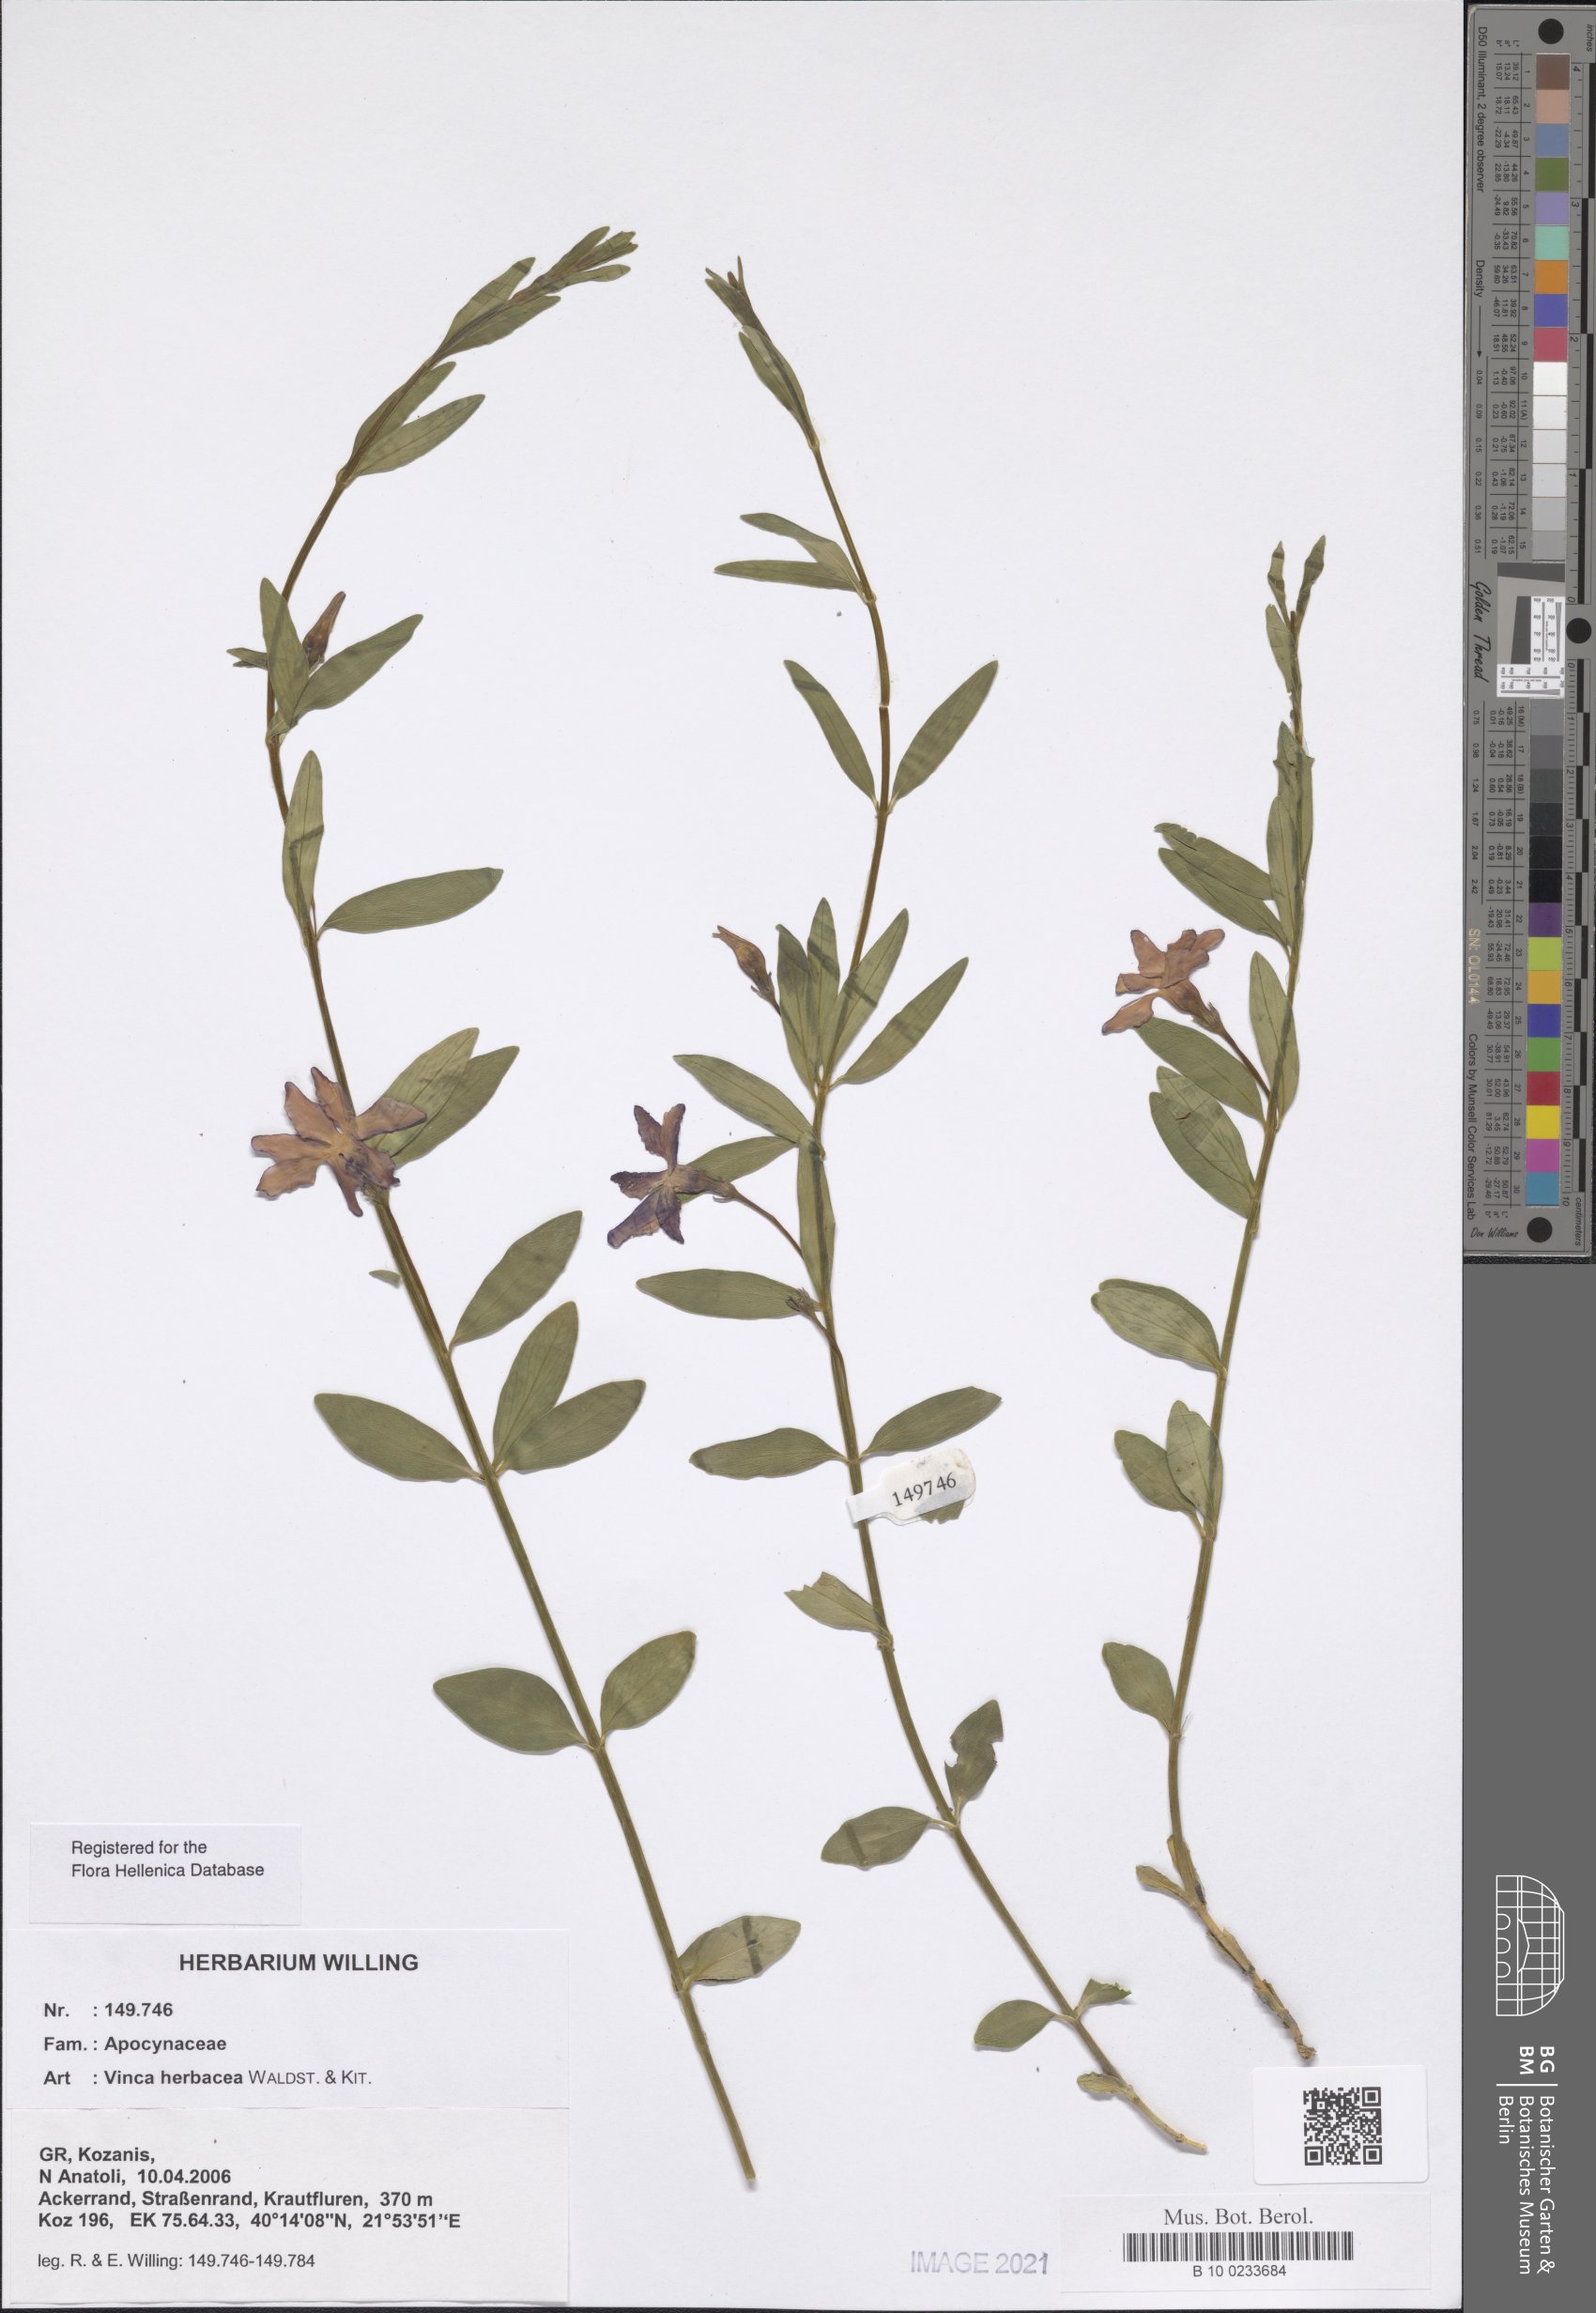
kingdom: Plantae
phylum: Tracheophyta
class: Magnoliopsida
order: Gentianales
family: Apocynaceae
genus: Vinca
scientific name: Vinca herbacea
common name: Herbaceous periwinkle
